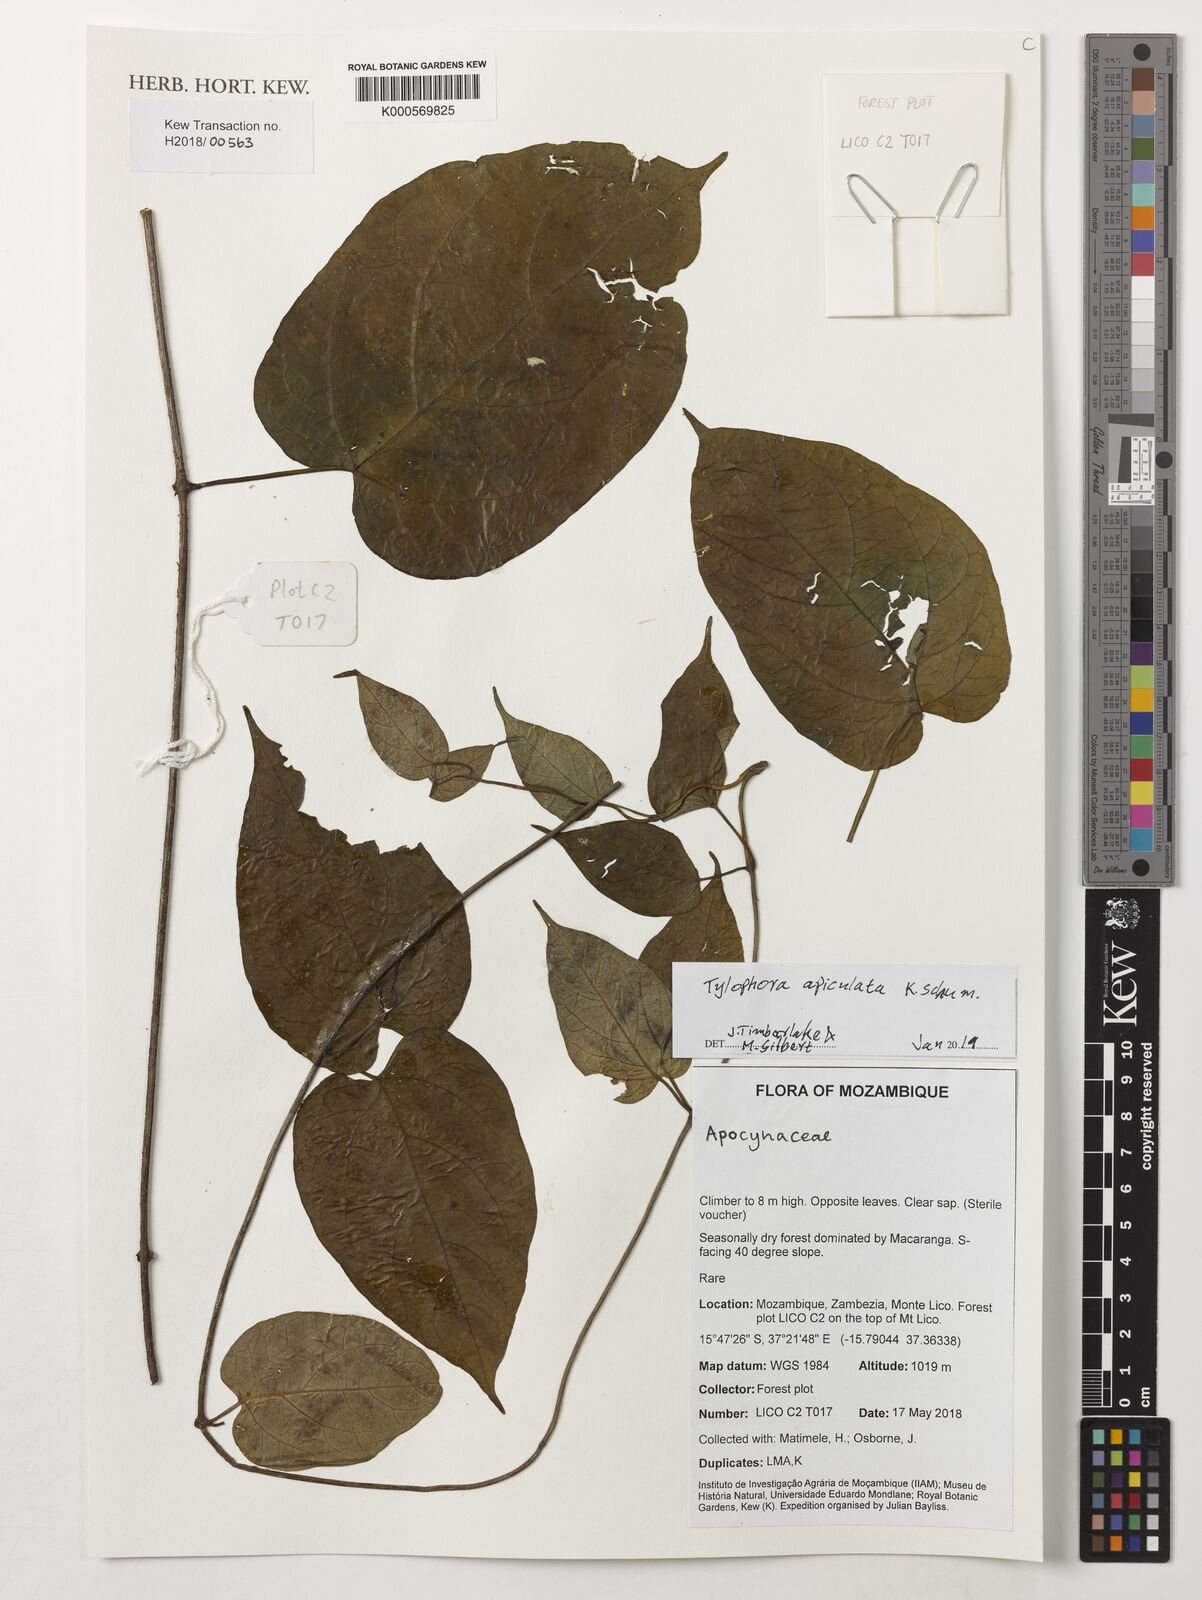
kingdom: Plantae
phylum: Tracheophyta
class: Magnoliopsida
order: Gentianales
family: Apocynaceae
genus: Vincetoxicum
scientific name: Vincetoxicum apiculatum
